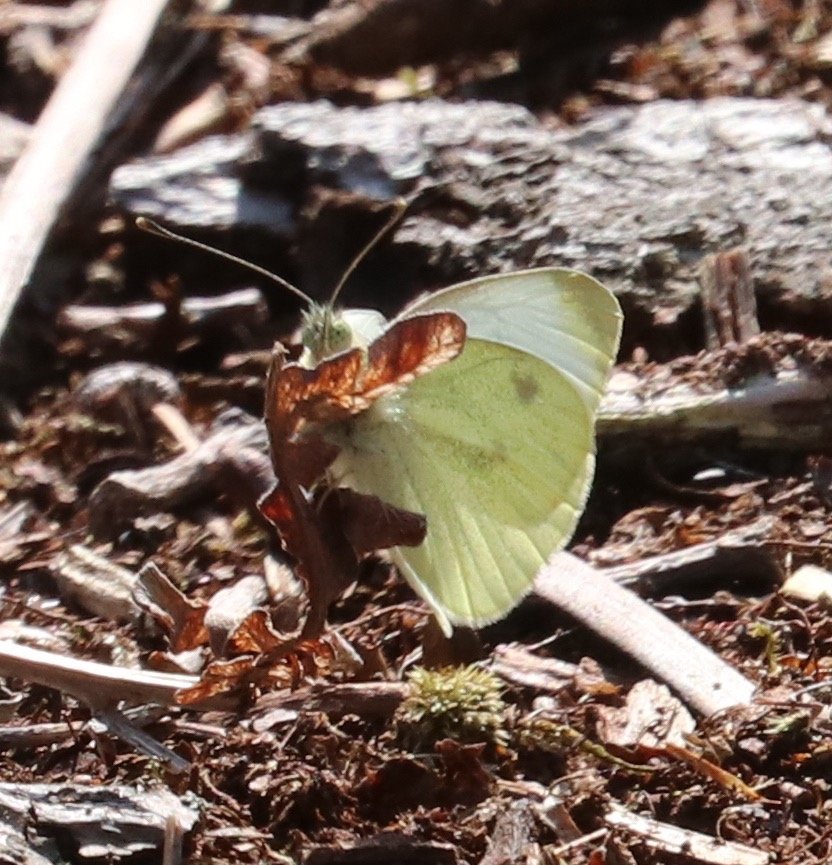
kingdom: Animalia
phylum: Arthropoda
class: Insecta
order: Lepidoptera
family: Pieridae
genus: Pieris
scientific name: Pieris rapae
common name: Cabbage White
